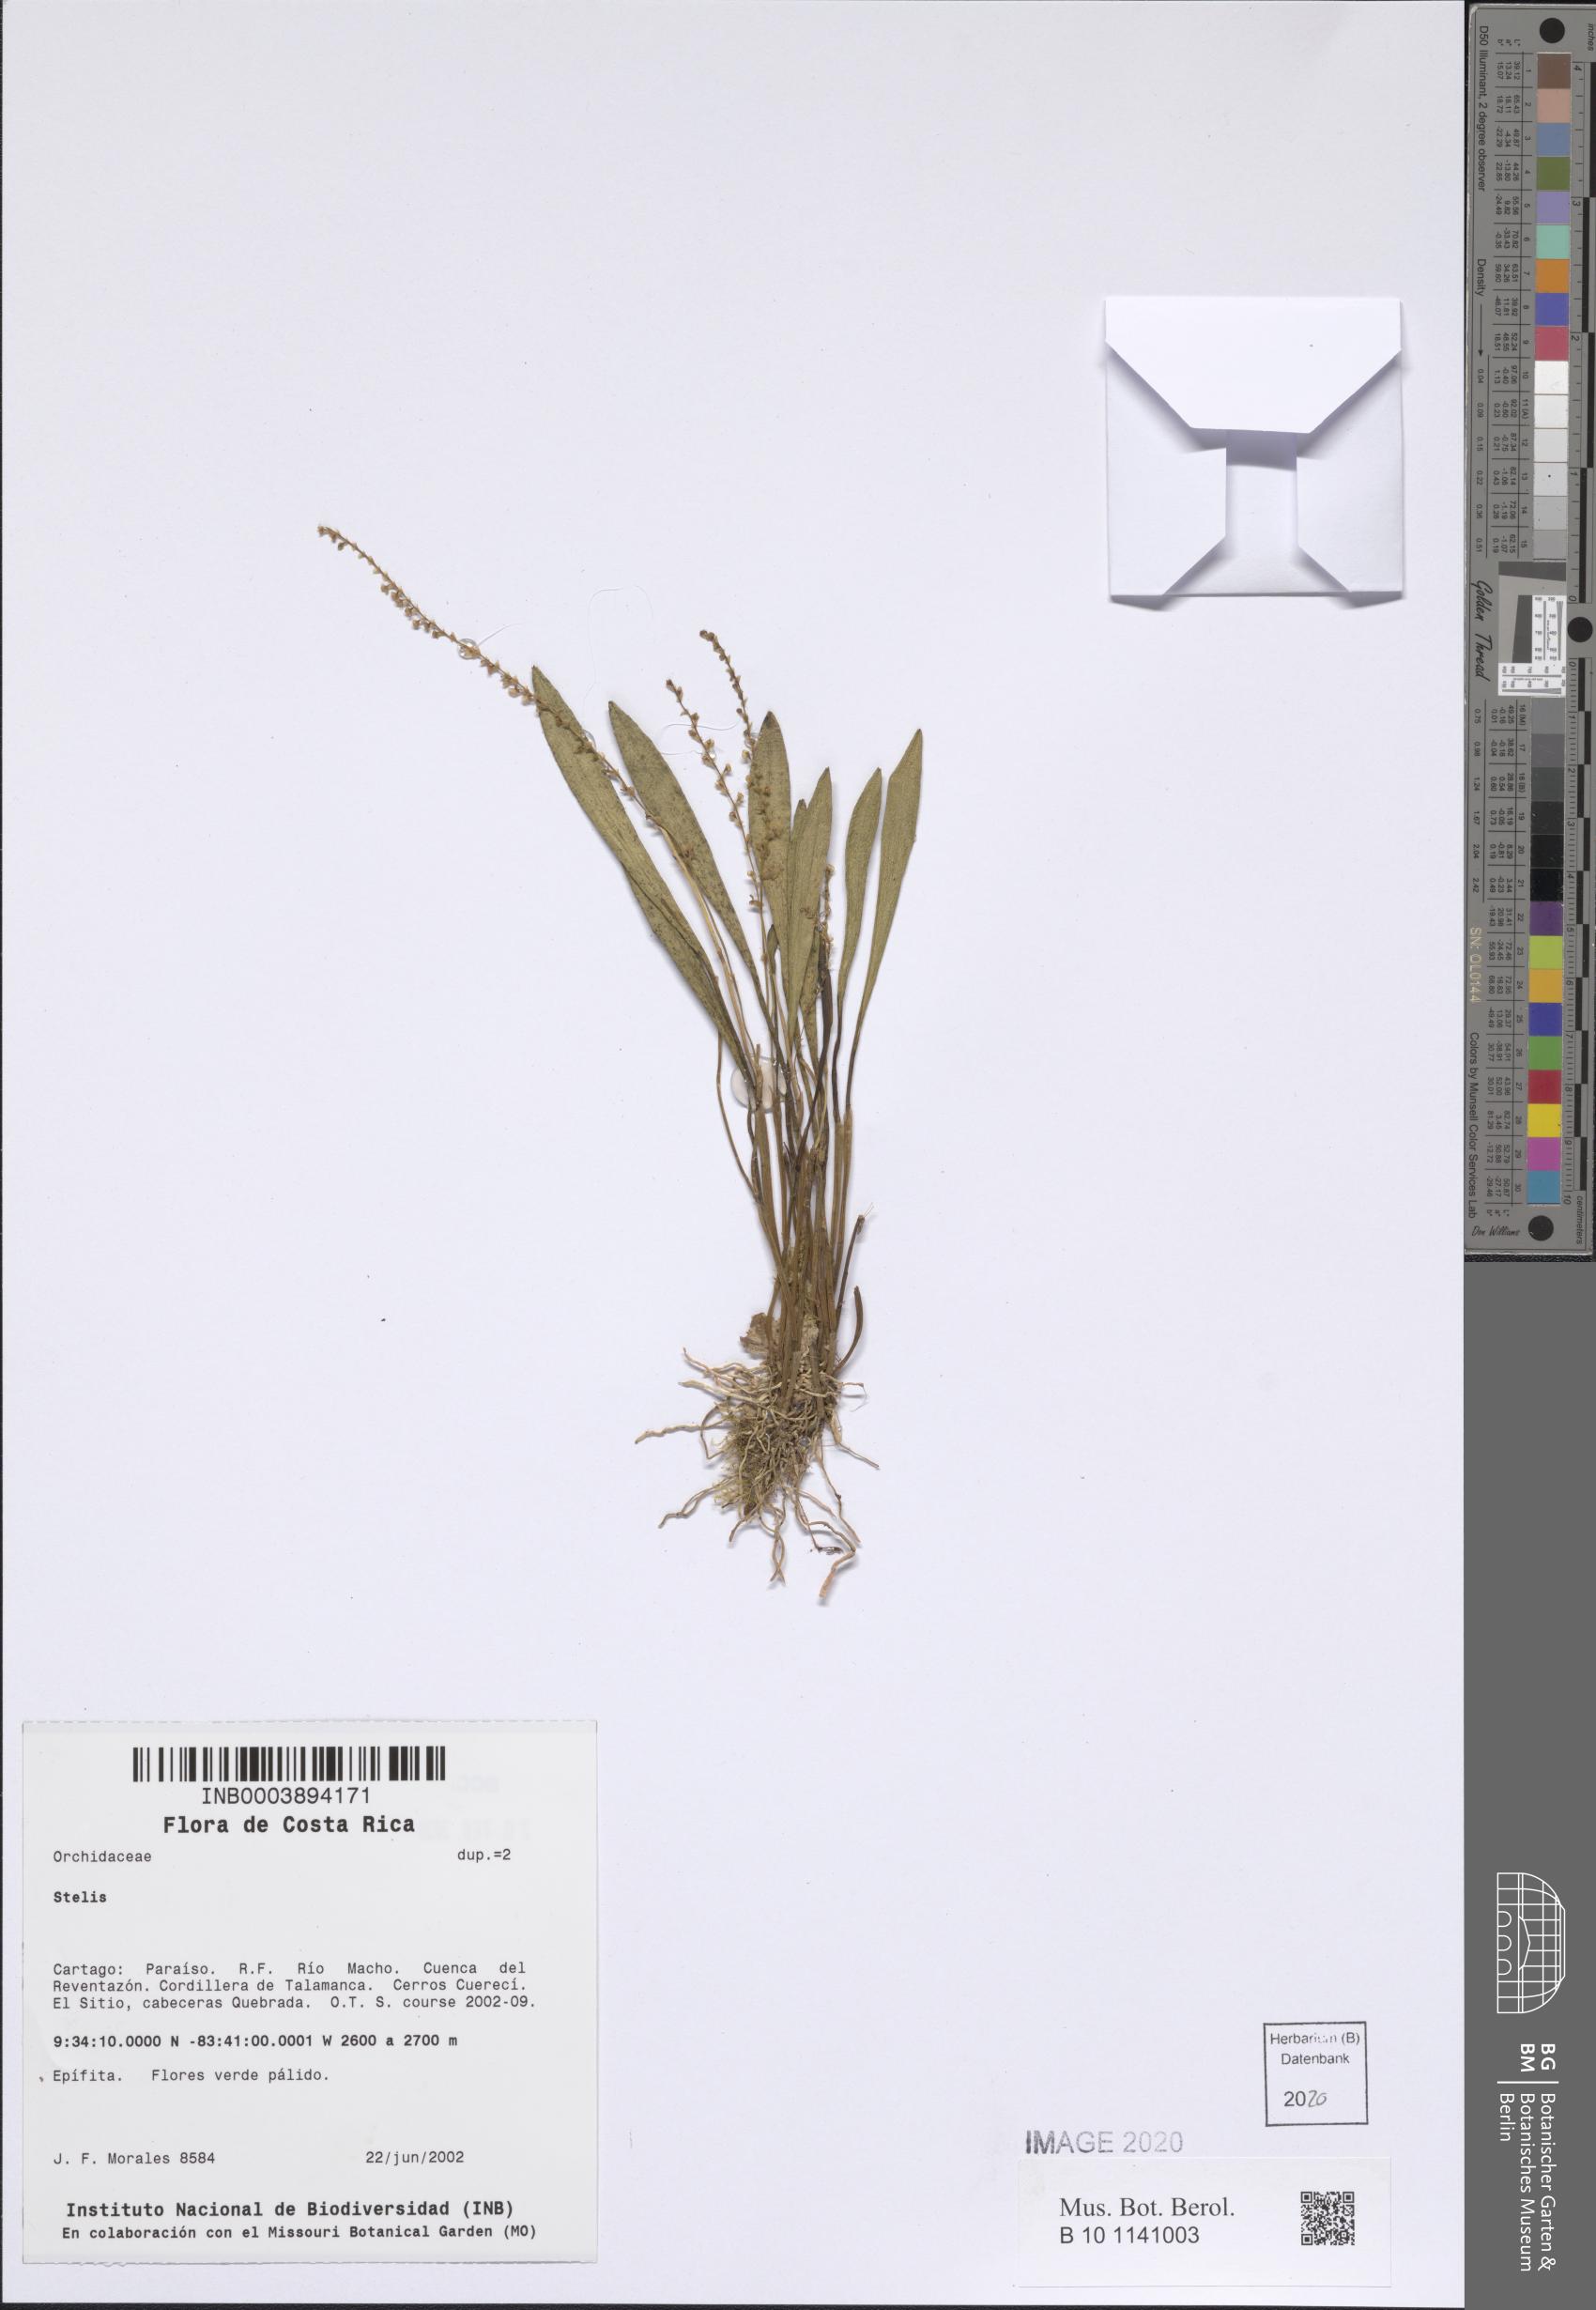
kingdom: Plantae
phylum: Tracheophyta
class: Liliopsida
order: Asparagales
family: Orchidaceae
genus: Stelis
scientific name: Stelis
